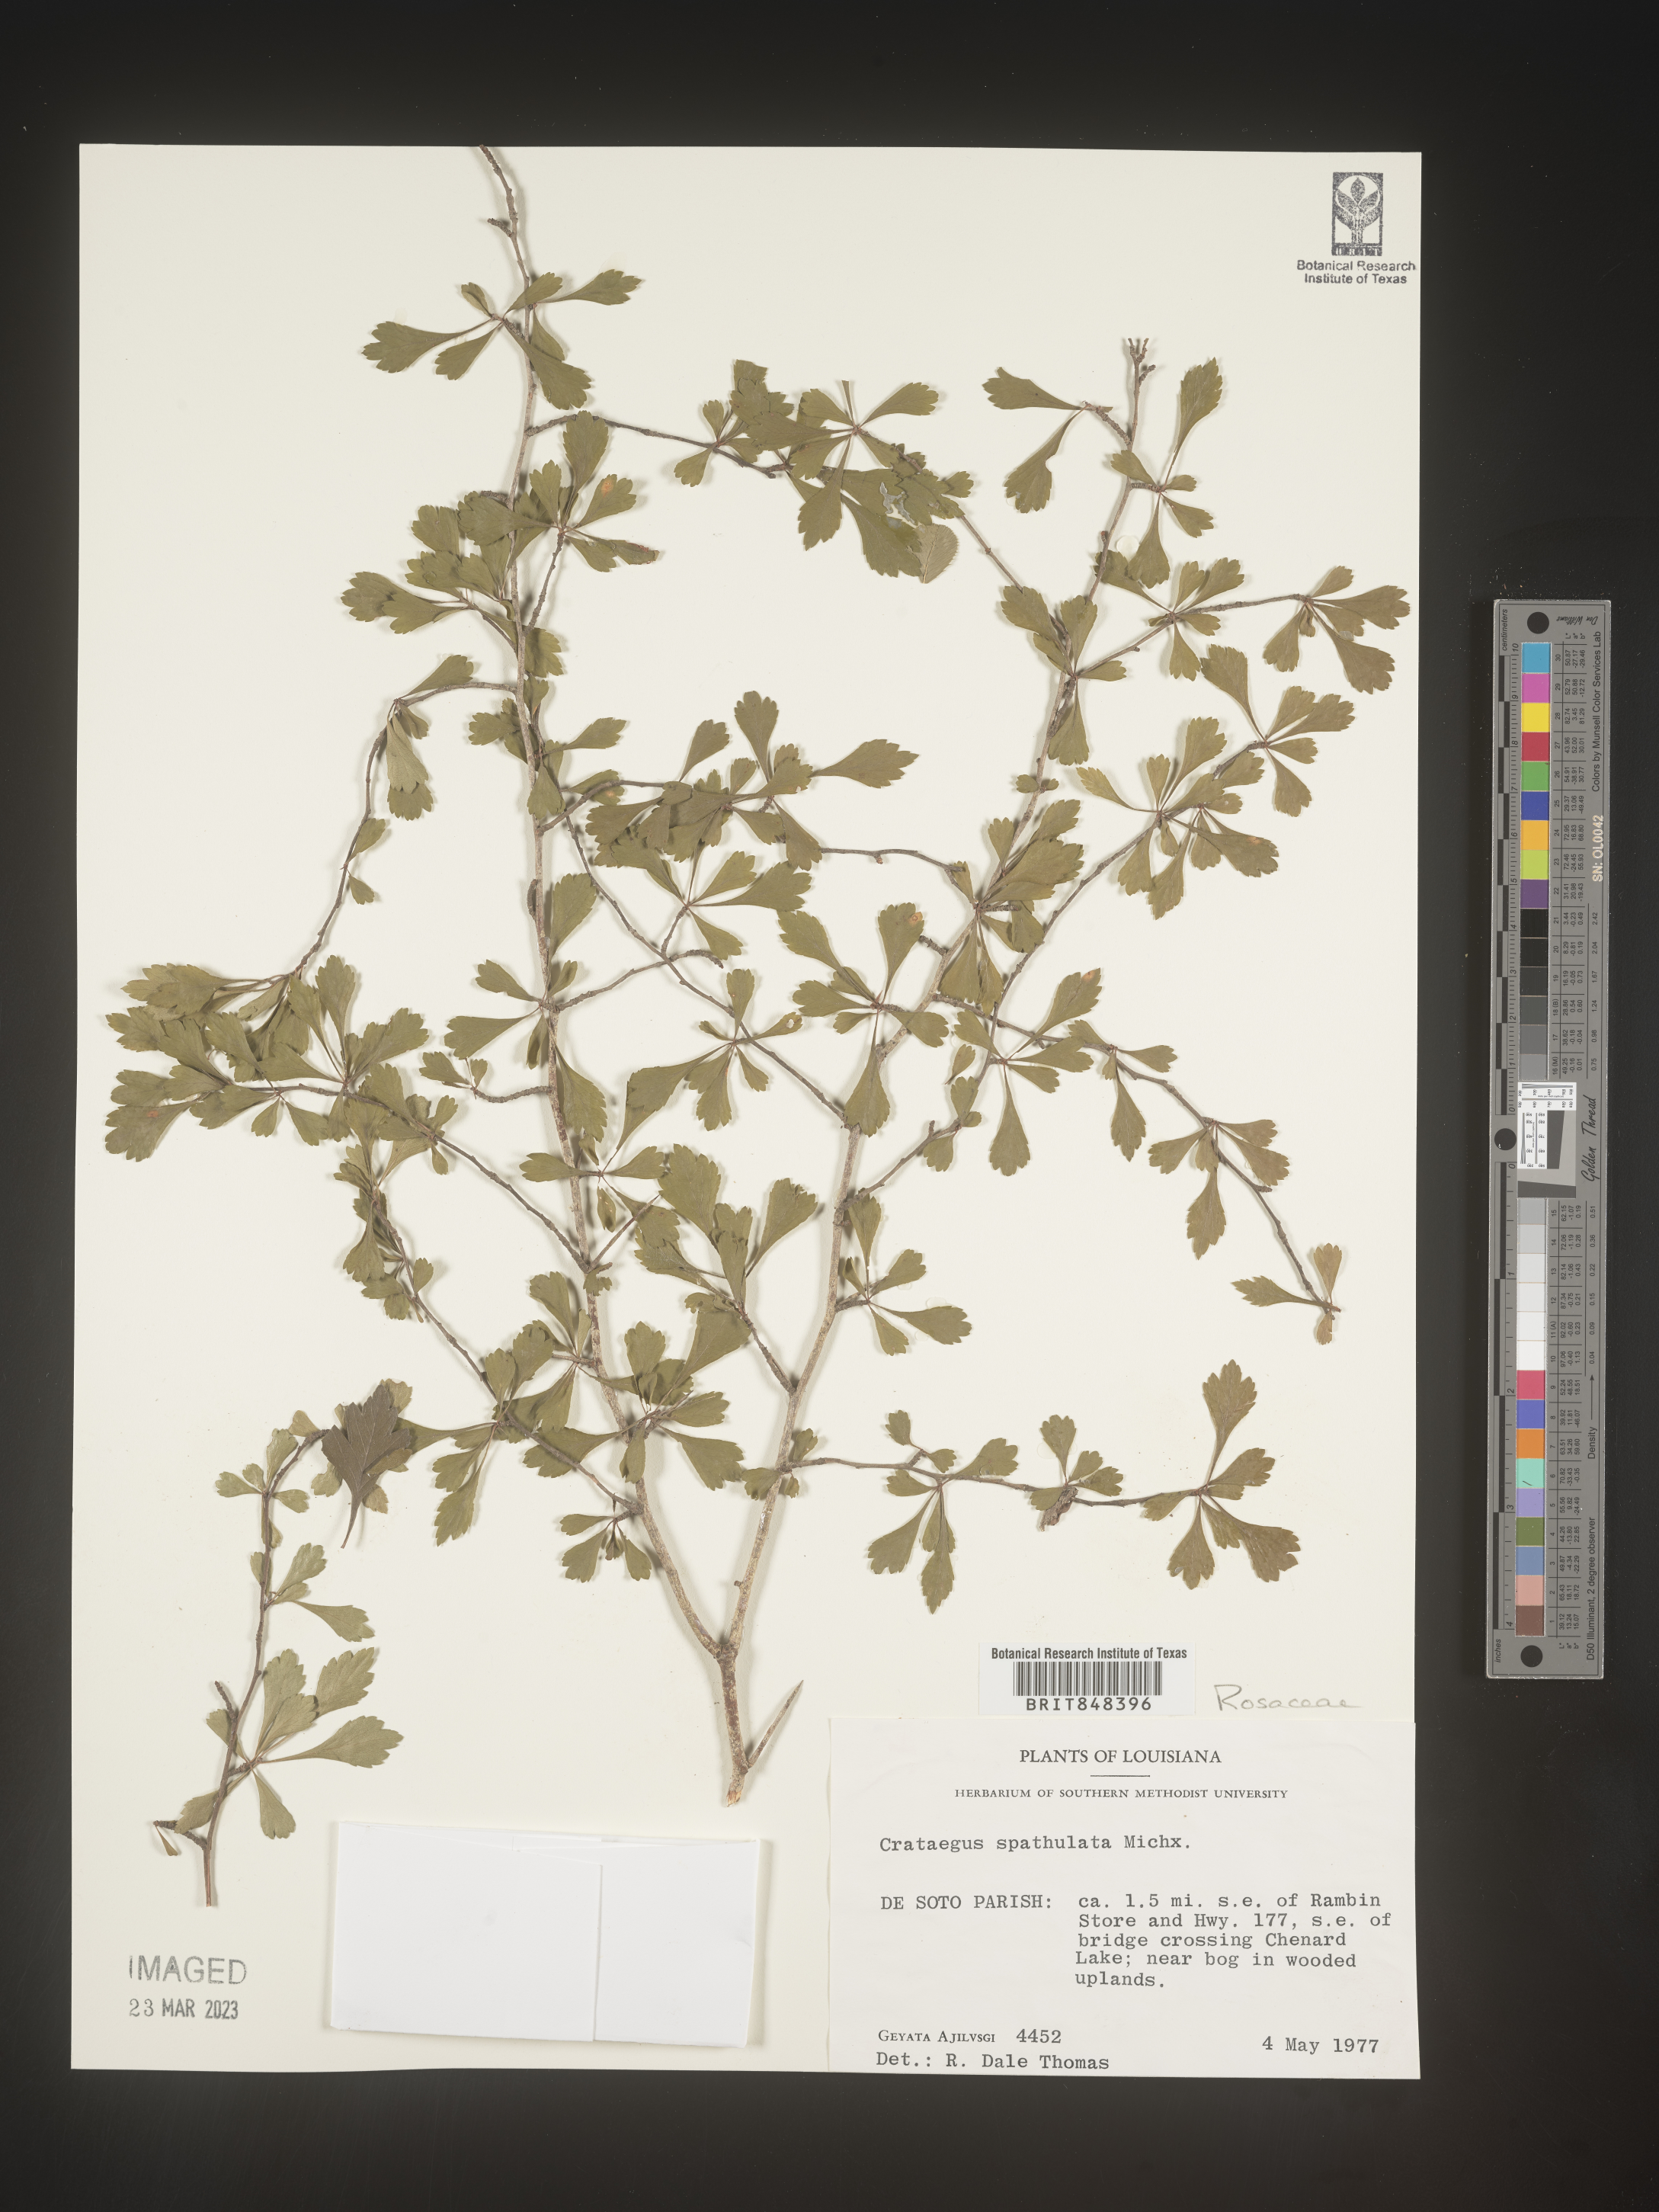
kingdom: Plantae
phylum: Tracheophyta
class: Magnoliopsida
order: Rosales
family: Rosaceae
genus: Crataegus
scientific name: Crataegus spathulata
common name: Littlehip hawthorn
